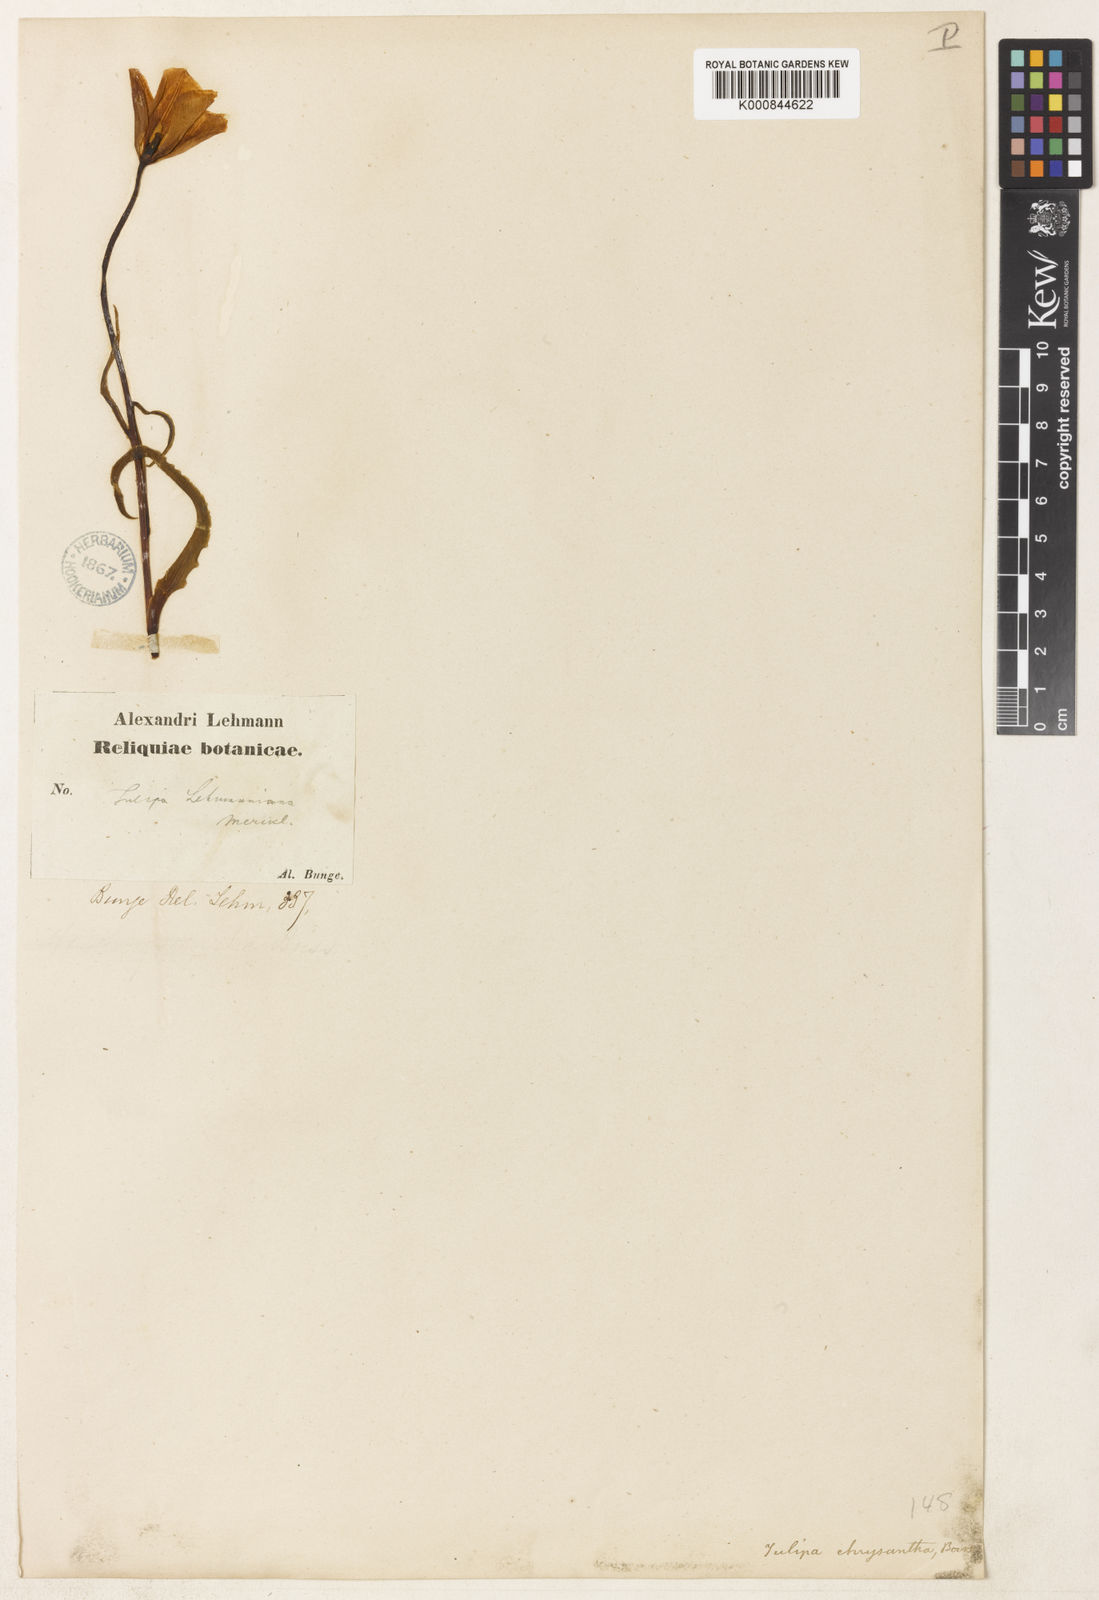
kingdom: Plantae
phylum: Tracheophyta
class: Liliopsida
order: Liliales
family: Liliaceae
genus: Tulipa
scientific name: Tulipa lehmanniana
